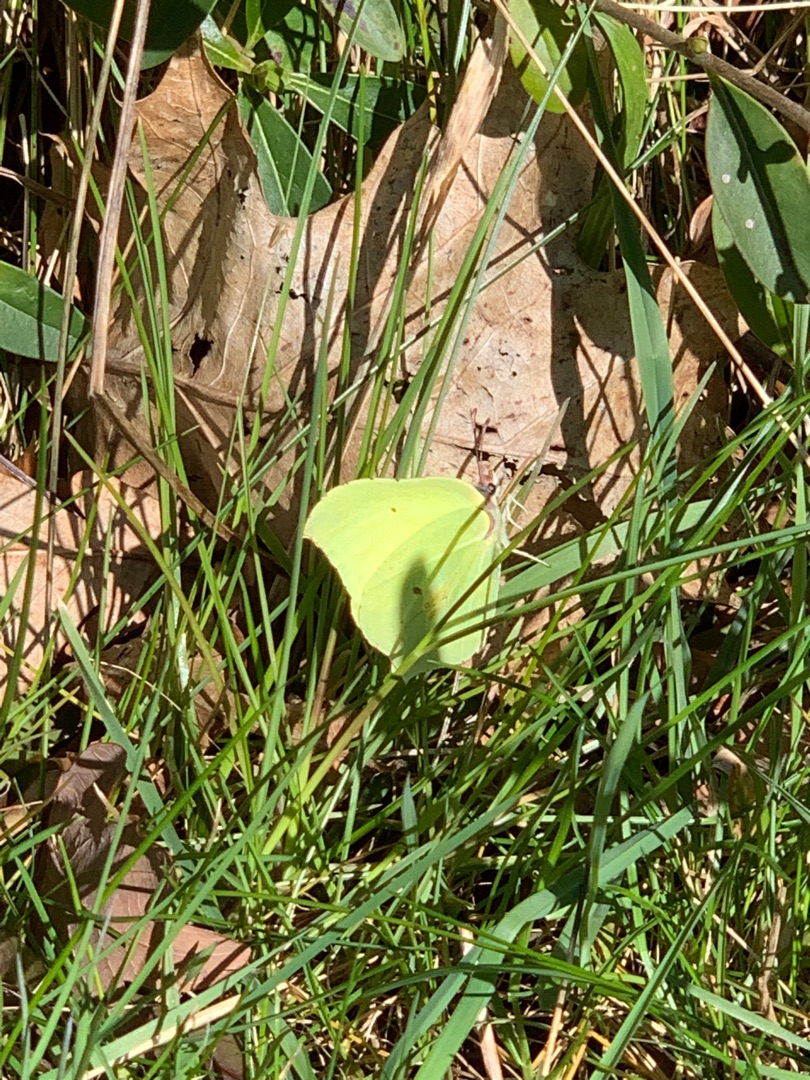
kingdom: Animalia
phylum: Arthropoda
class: Insecta
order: Lepidoptera
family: Pieridae
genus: Gonepteryx
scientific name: Gonepteryx rhamni
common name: Citronsommerfugl
